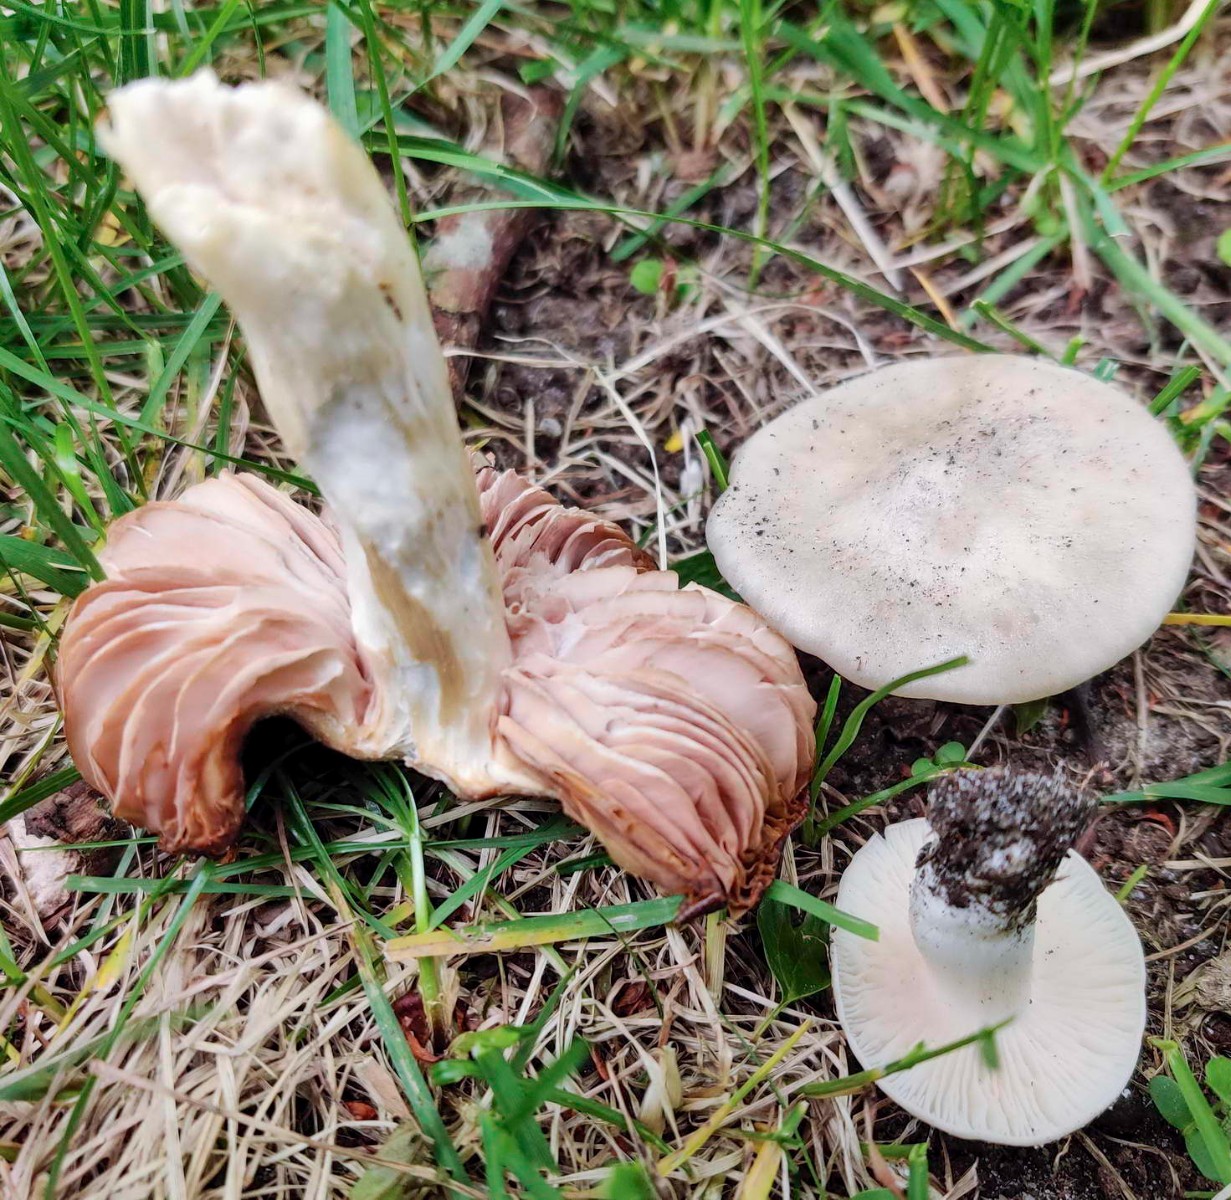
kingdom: Fungi
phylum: Basidiomycota
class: Agaricomycetes
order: Agaricales
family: Entolomataceae
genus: Entoloma
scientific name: Entoloma clypeatum
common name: flammet rødblad
